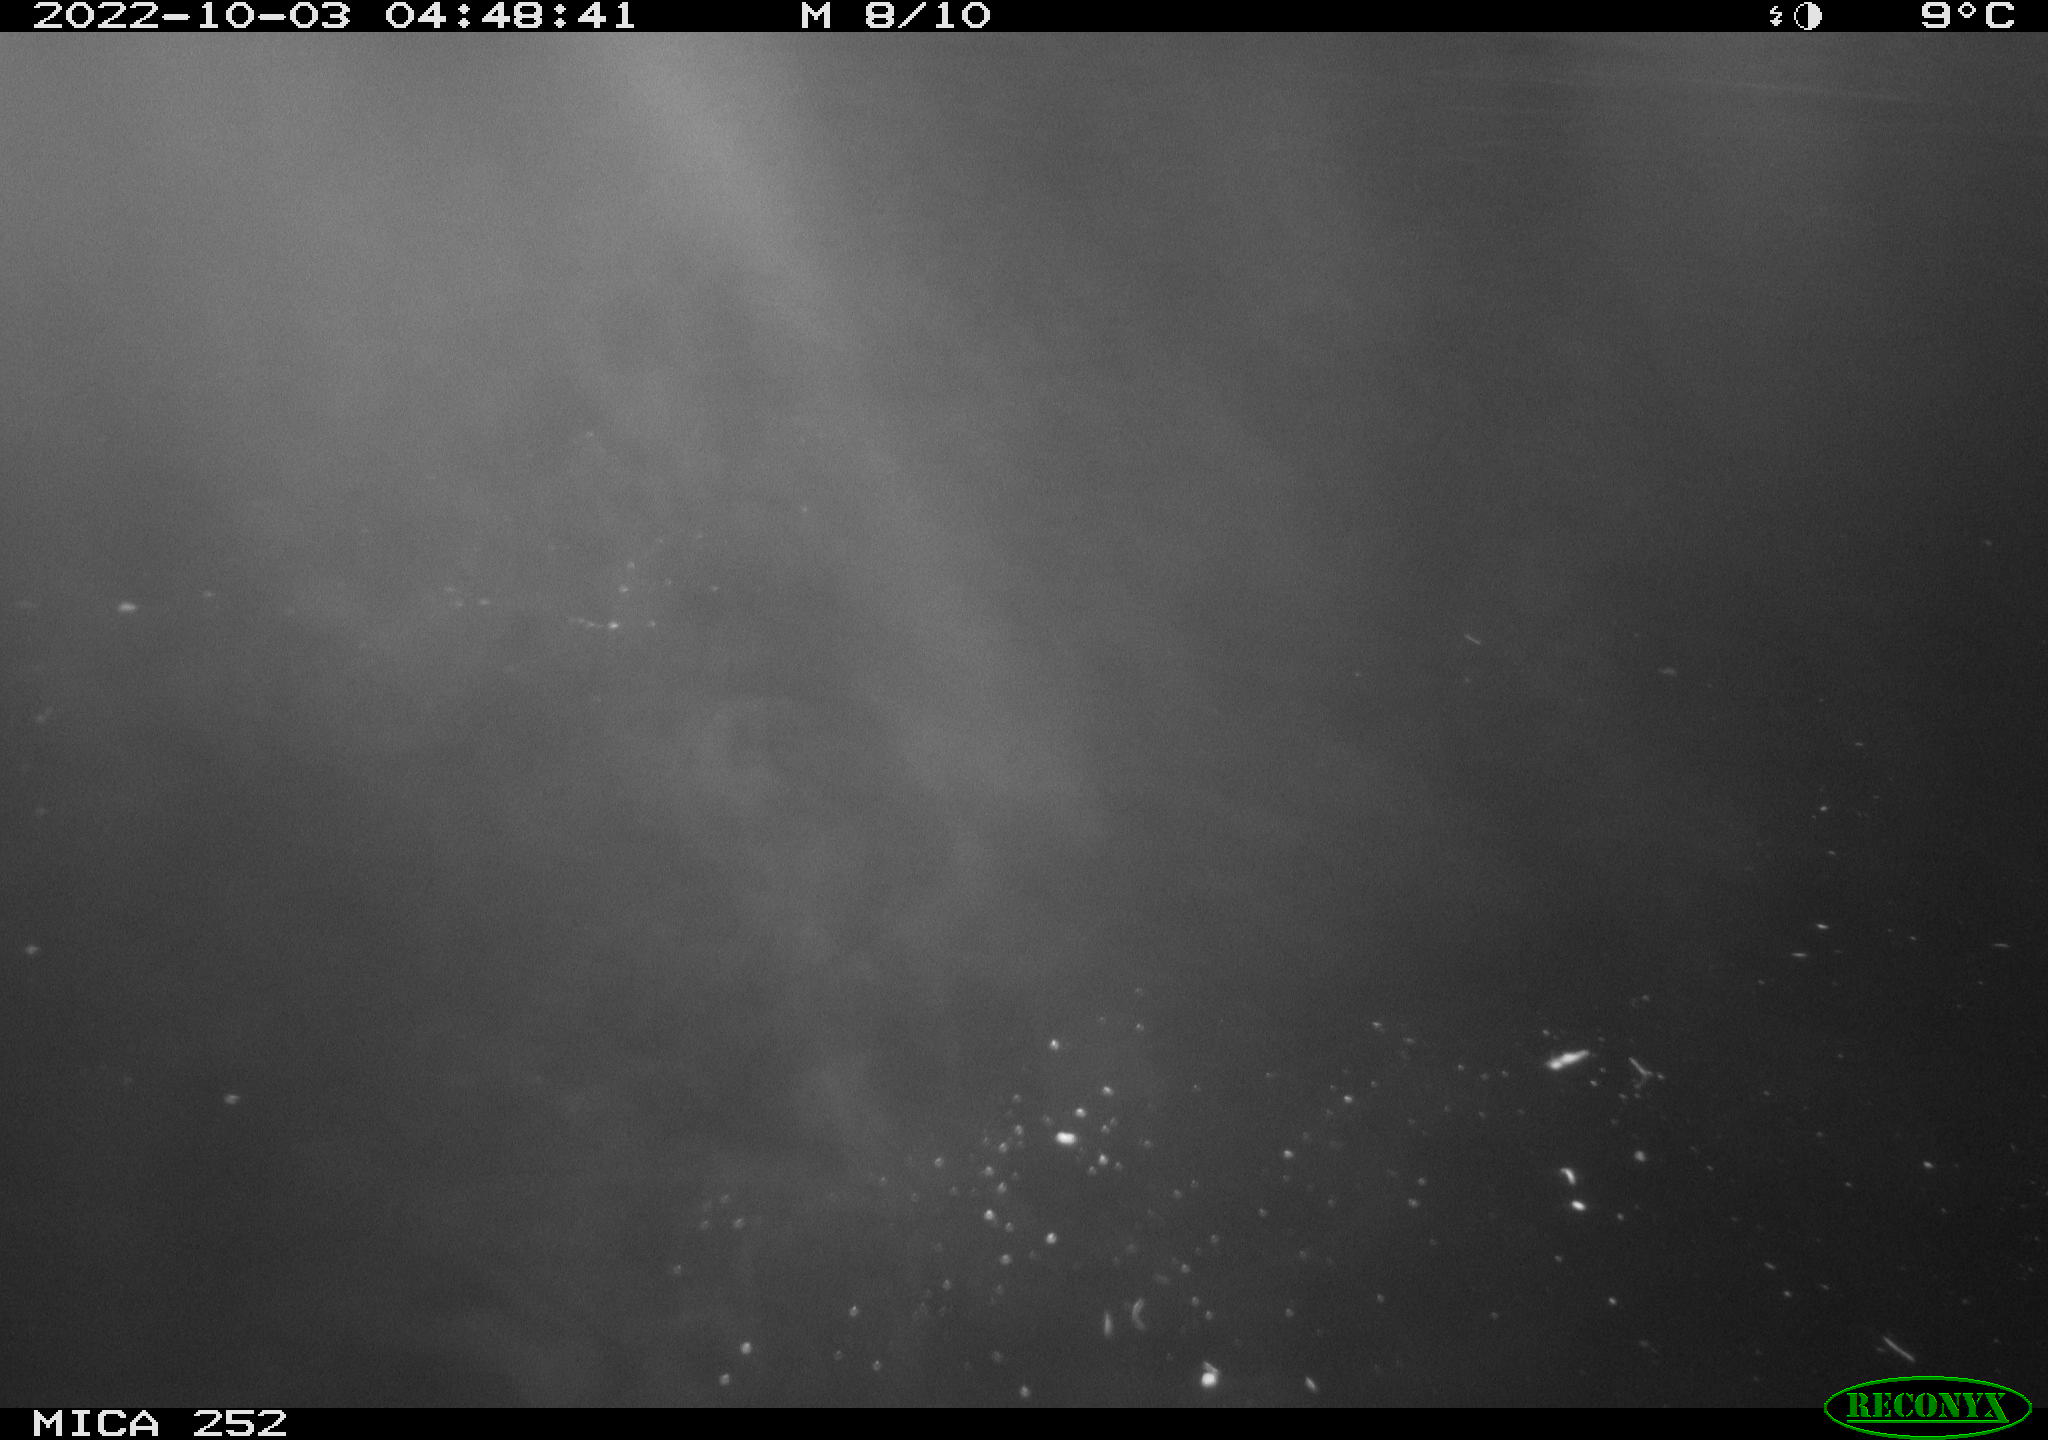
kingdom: Animalia
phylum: Chordata
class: Mammalia
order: Rodentia
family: Castoridae
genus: Castor
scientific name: Castor fiber
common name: Eurasian beaver
